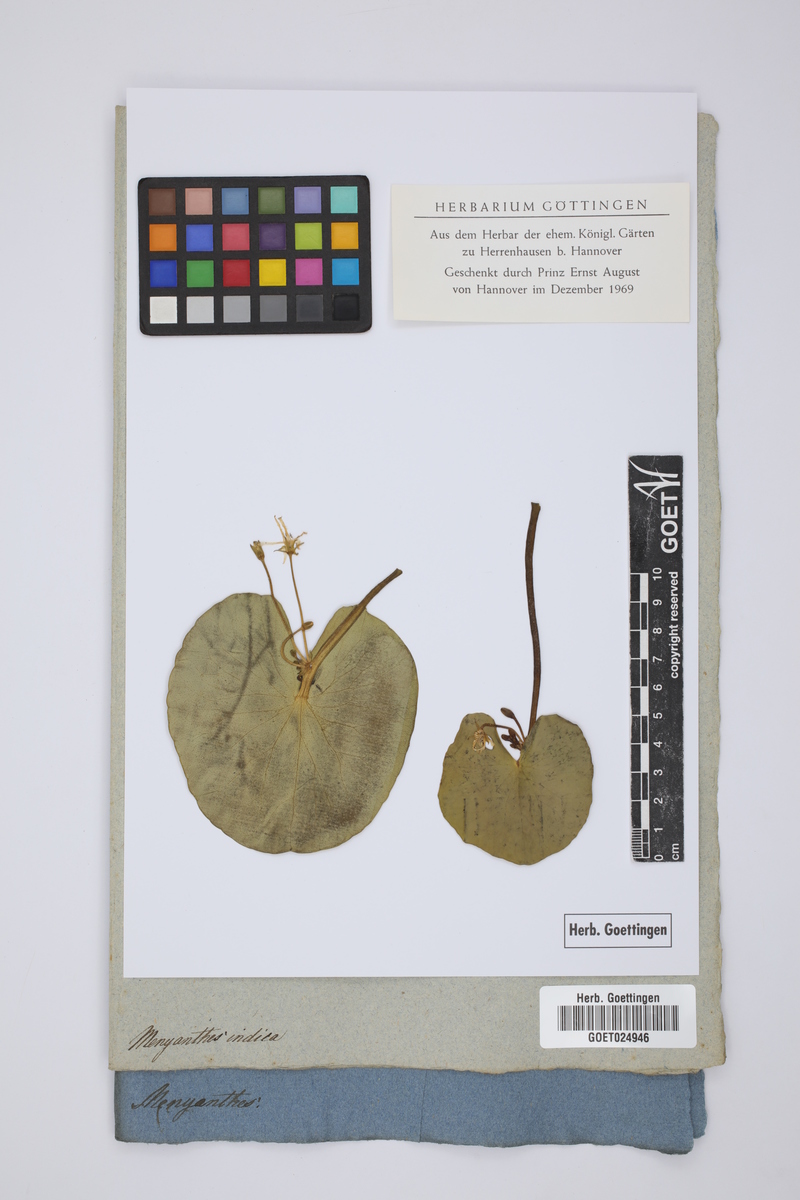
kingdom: Plantae
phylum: Tracheophyta
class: Magnoliopsida
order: Asterales
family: Menyanthaceae
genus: Nymphoides
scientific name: Nymphoides indica
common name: Water-snowflake
